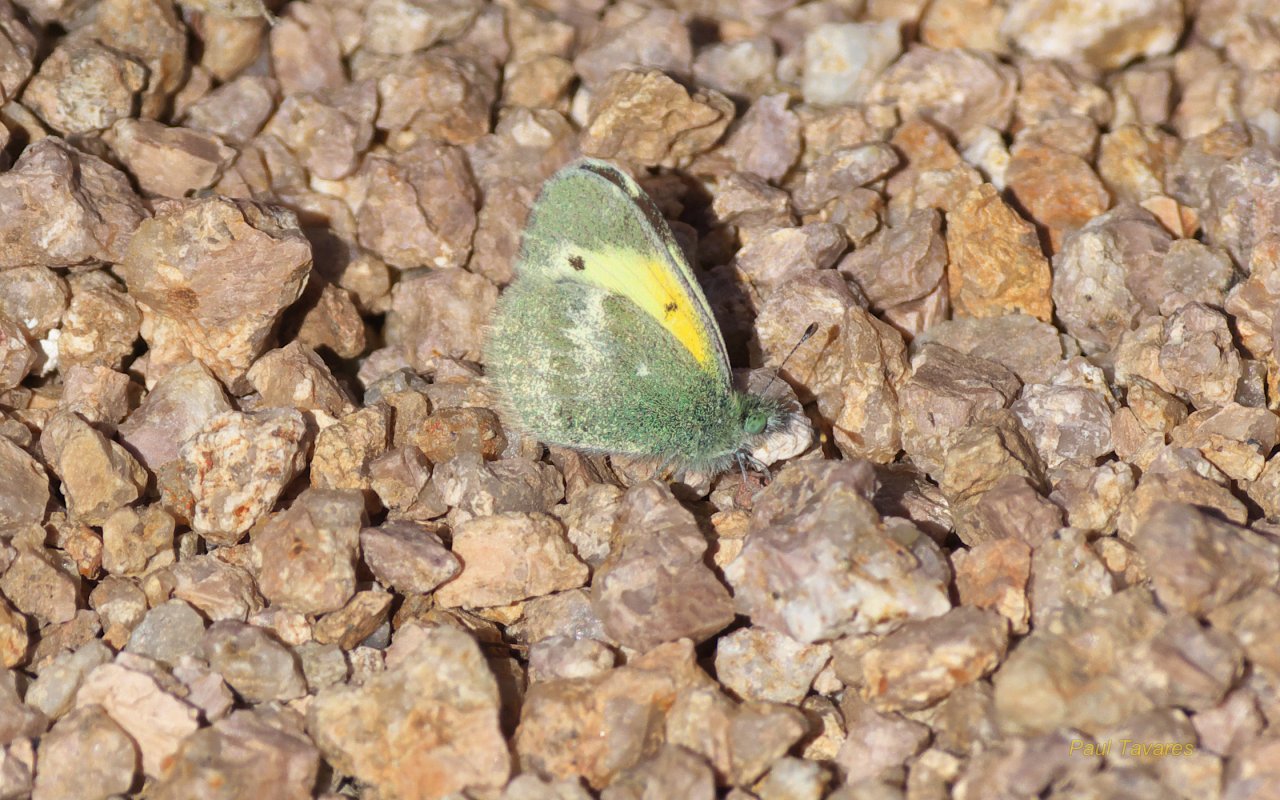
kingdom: Animalia
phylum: Arthropoda
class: Insecta
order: Lepidoptera
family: Pieridae
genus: Nathalis
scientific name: Nathalis iole
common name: Dainty Sulphur
